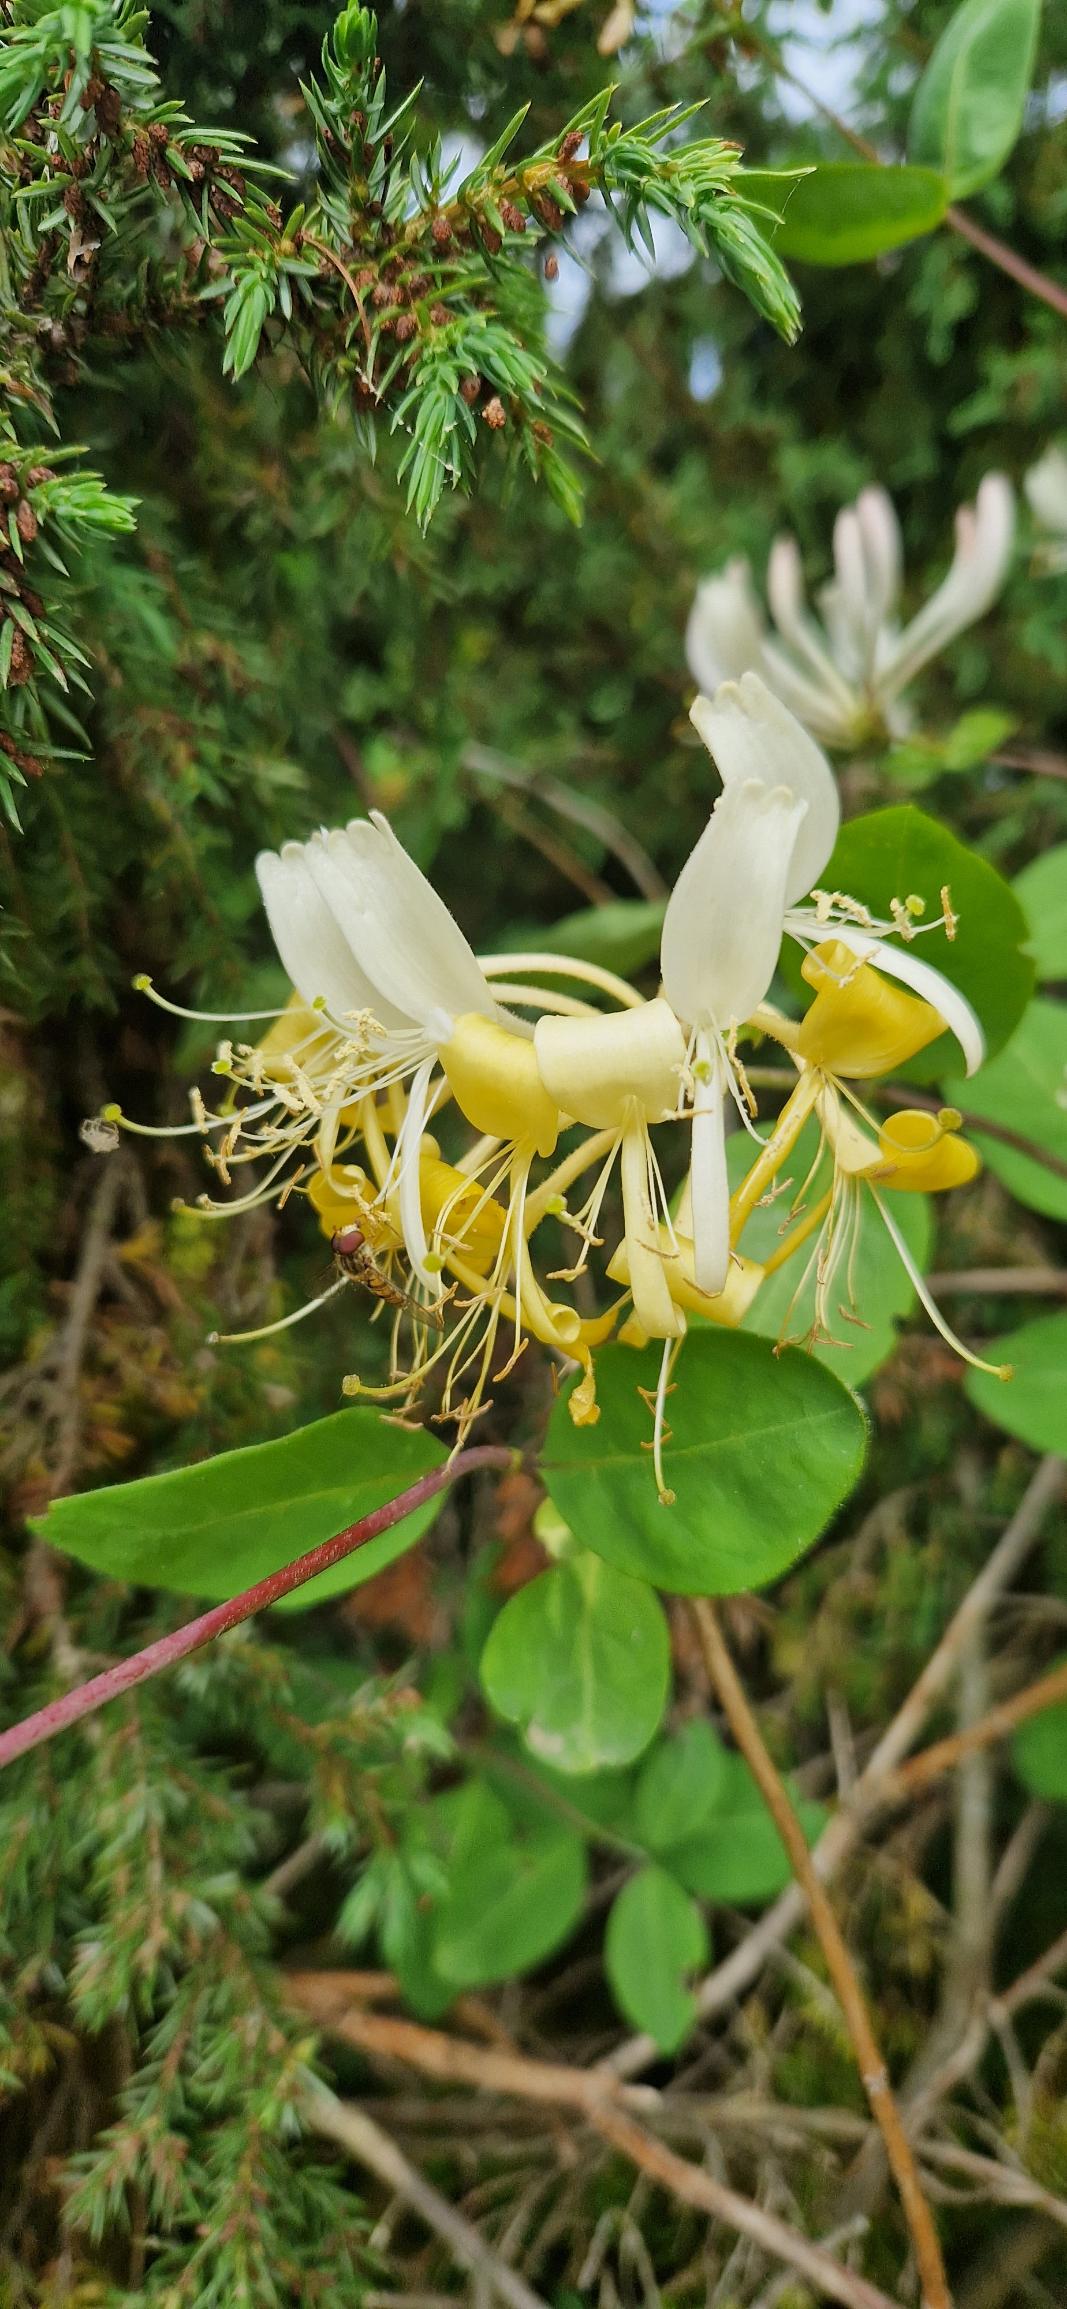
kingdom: Plantae
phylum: Tracheophyta
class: Magnoliopsida
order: Dipsacales
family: Caprifoliaceae
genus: Lonicera
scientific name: Lonicera periclymenum
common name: Almindelig gedeblad
